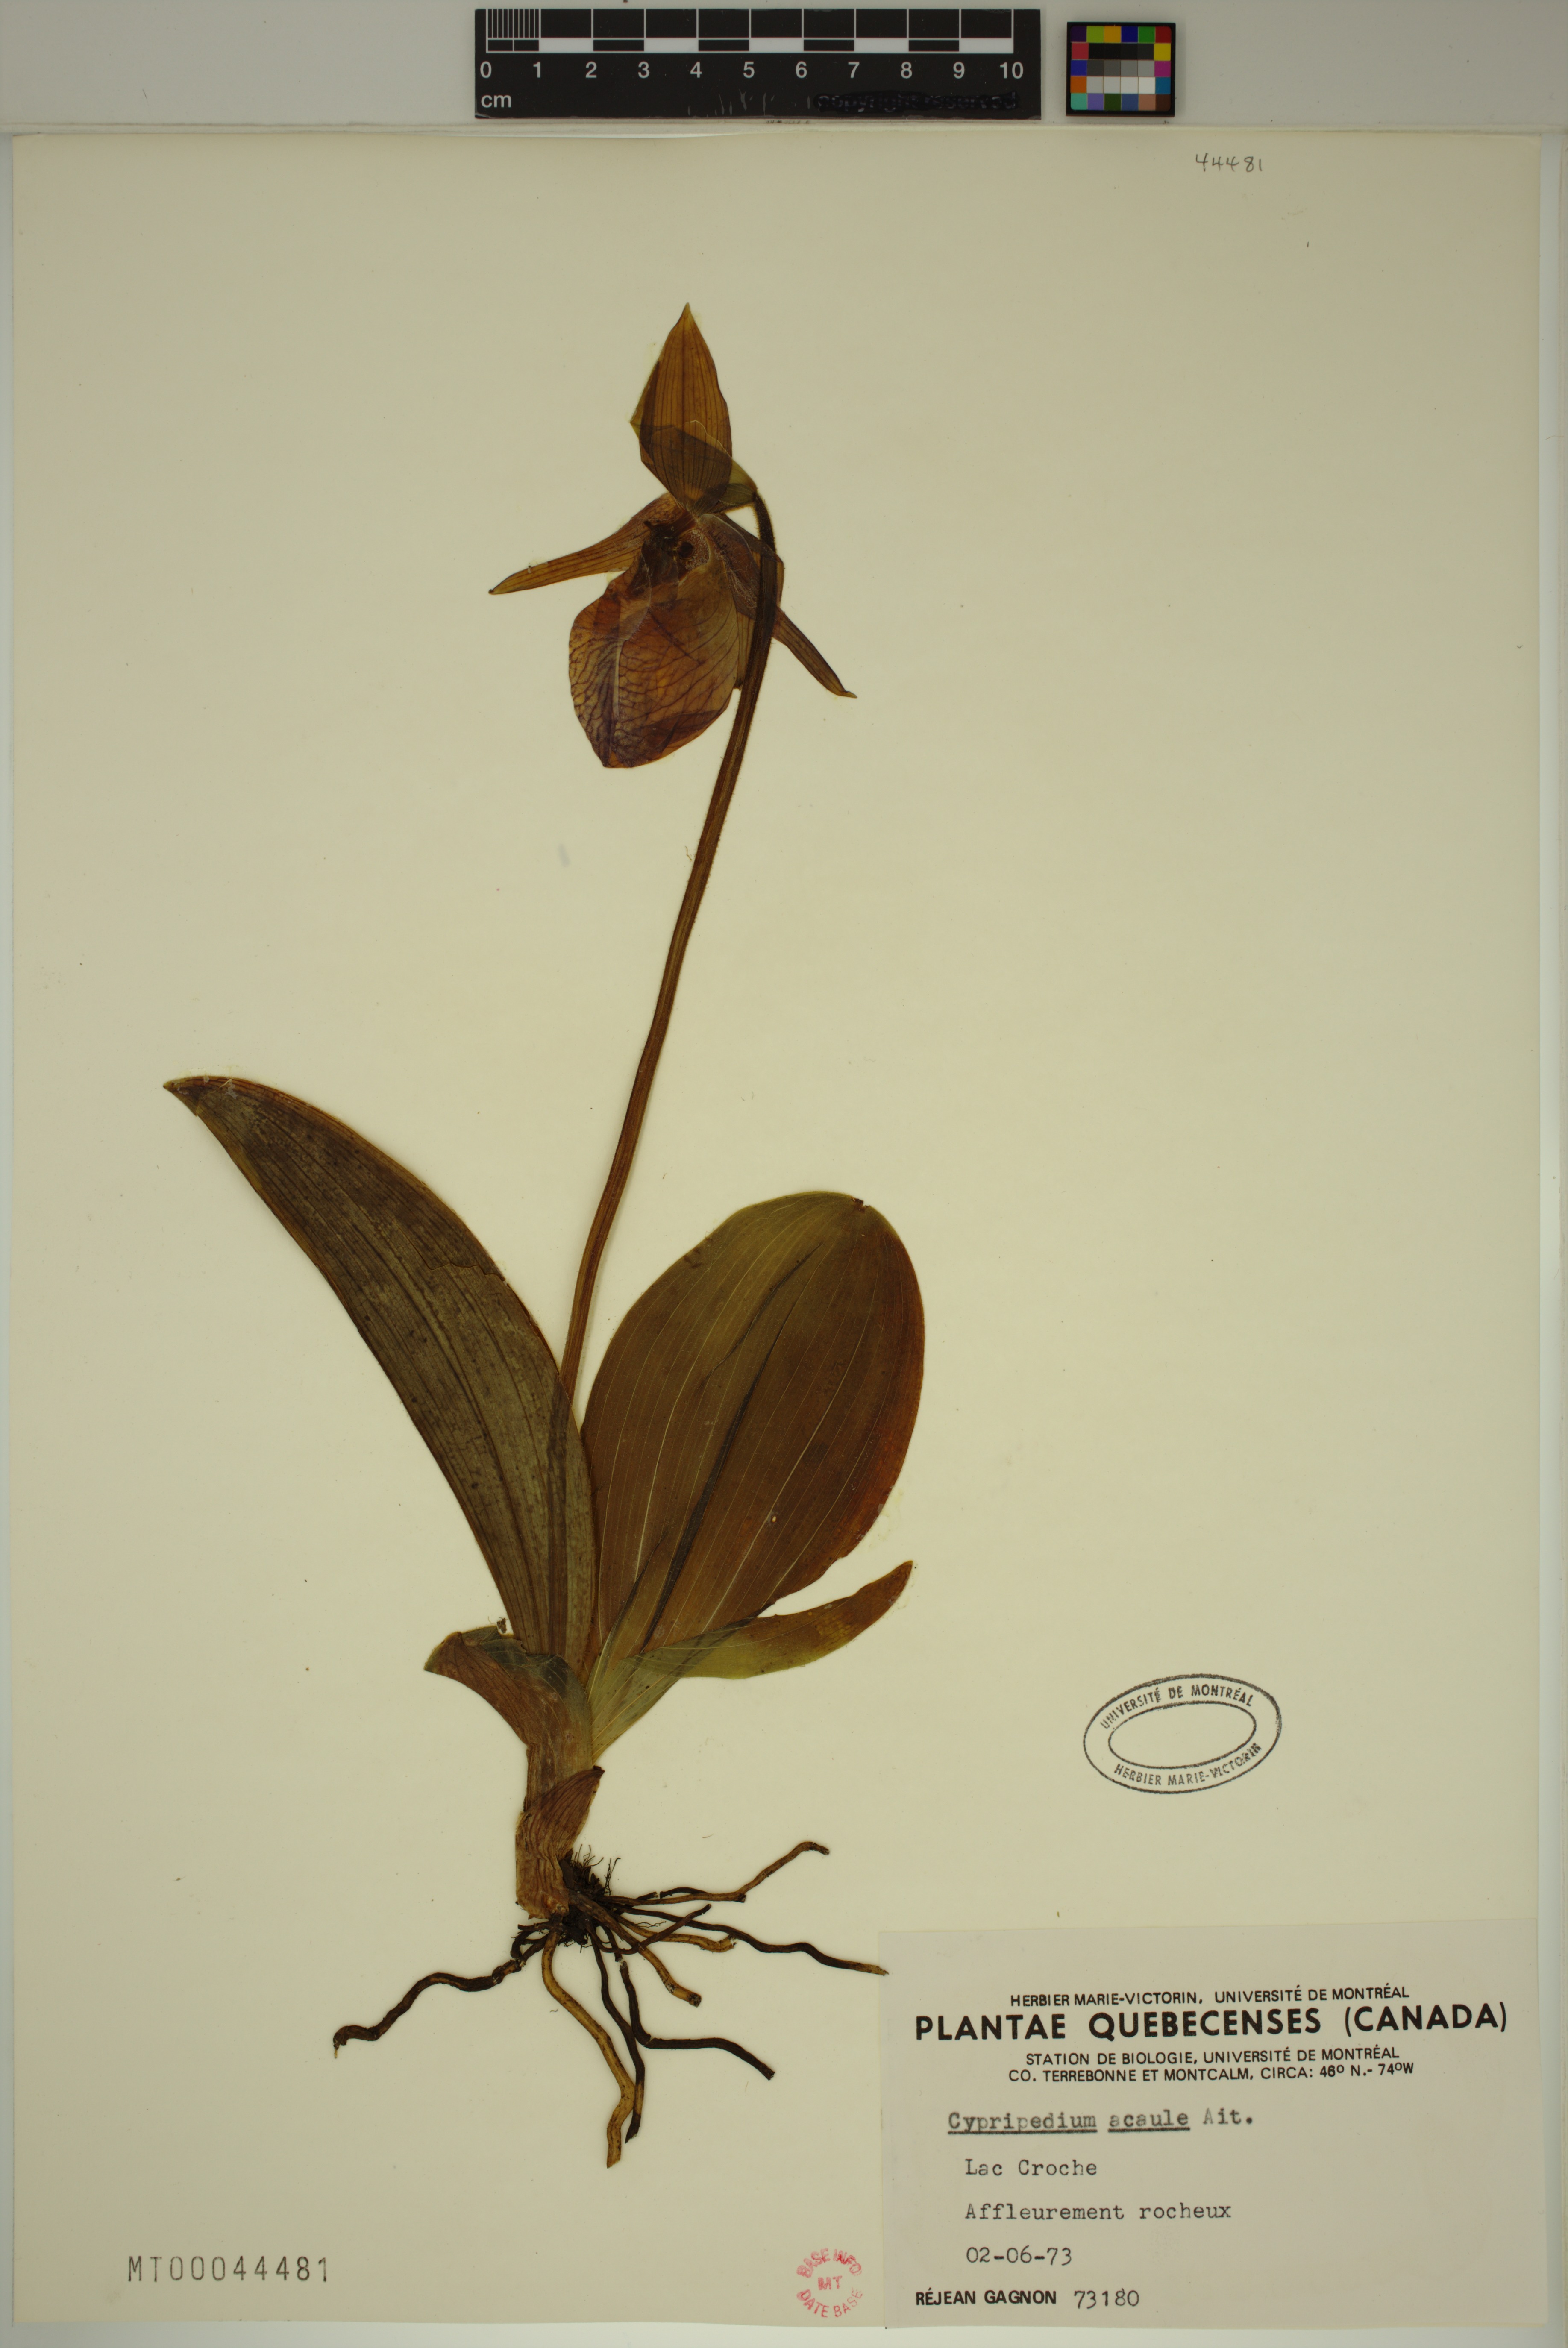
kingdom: Plantae
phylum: Tracheophyta
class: Liliopsida
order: Asparagales
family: Orchidaceae
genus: Cypripedium
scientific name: Cypripedium acaule
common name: Pink lady's-slipper
